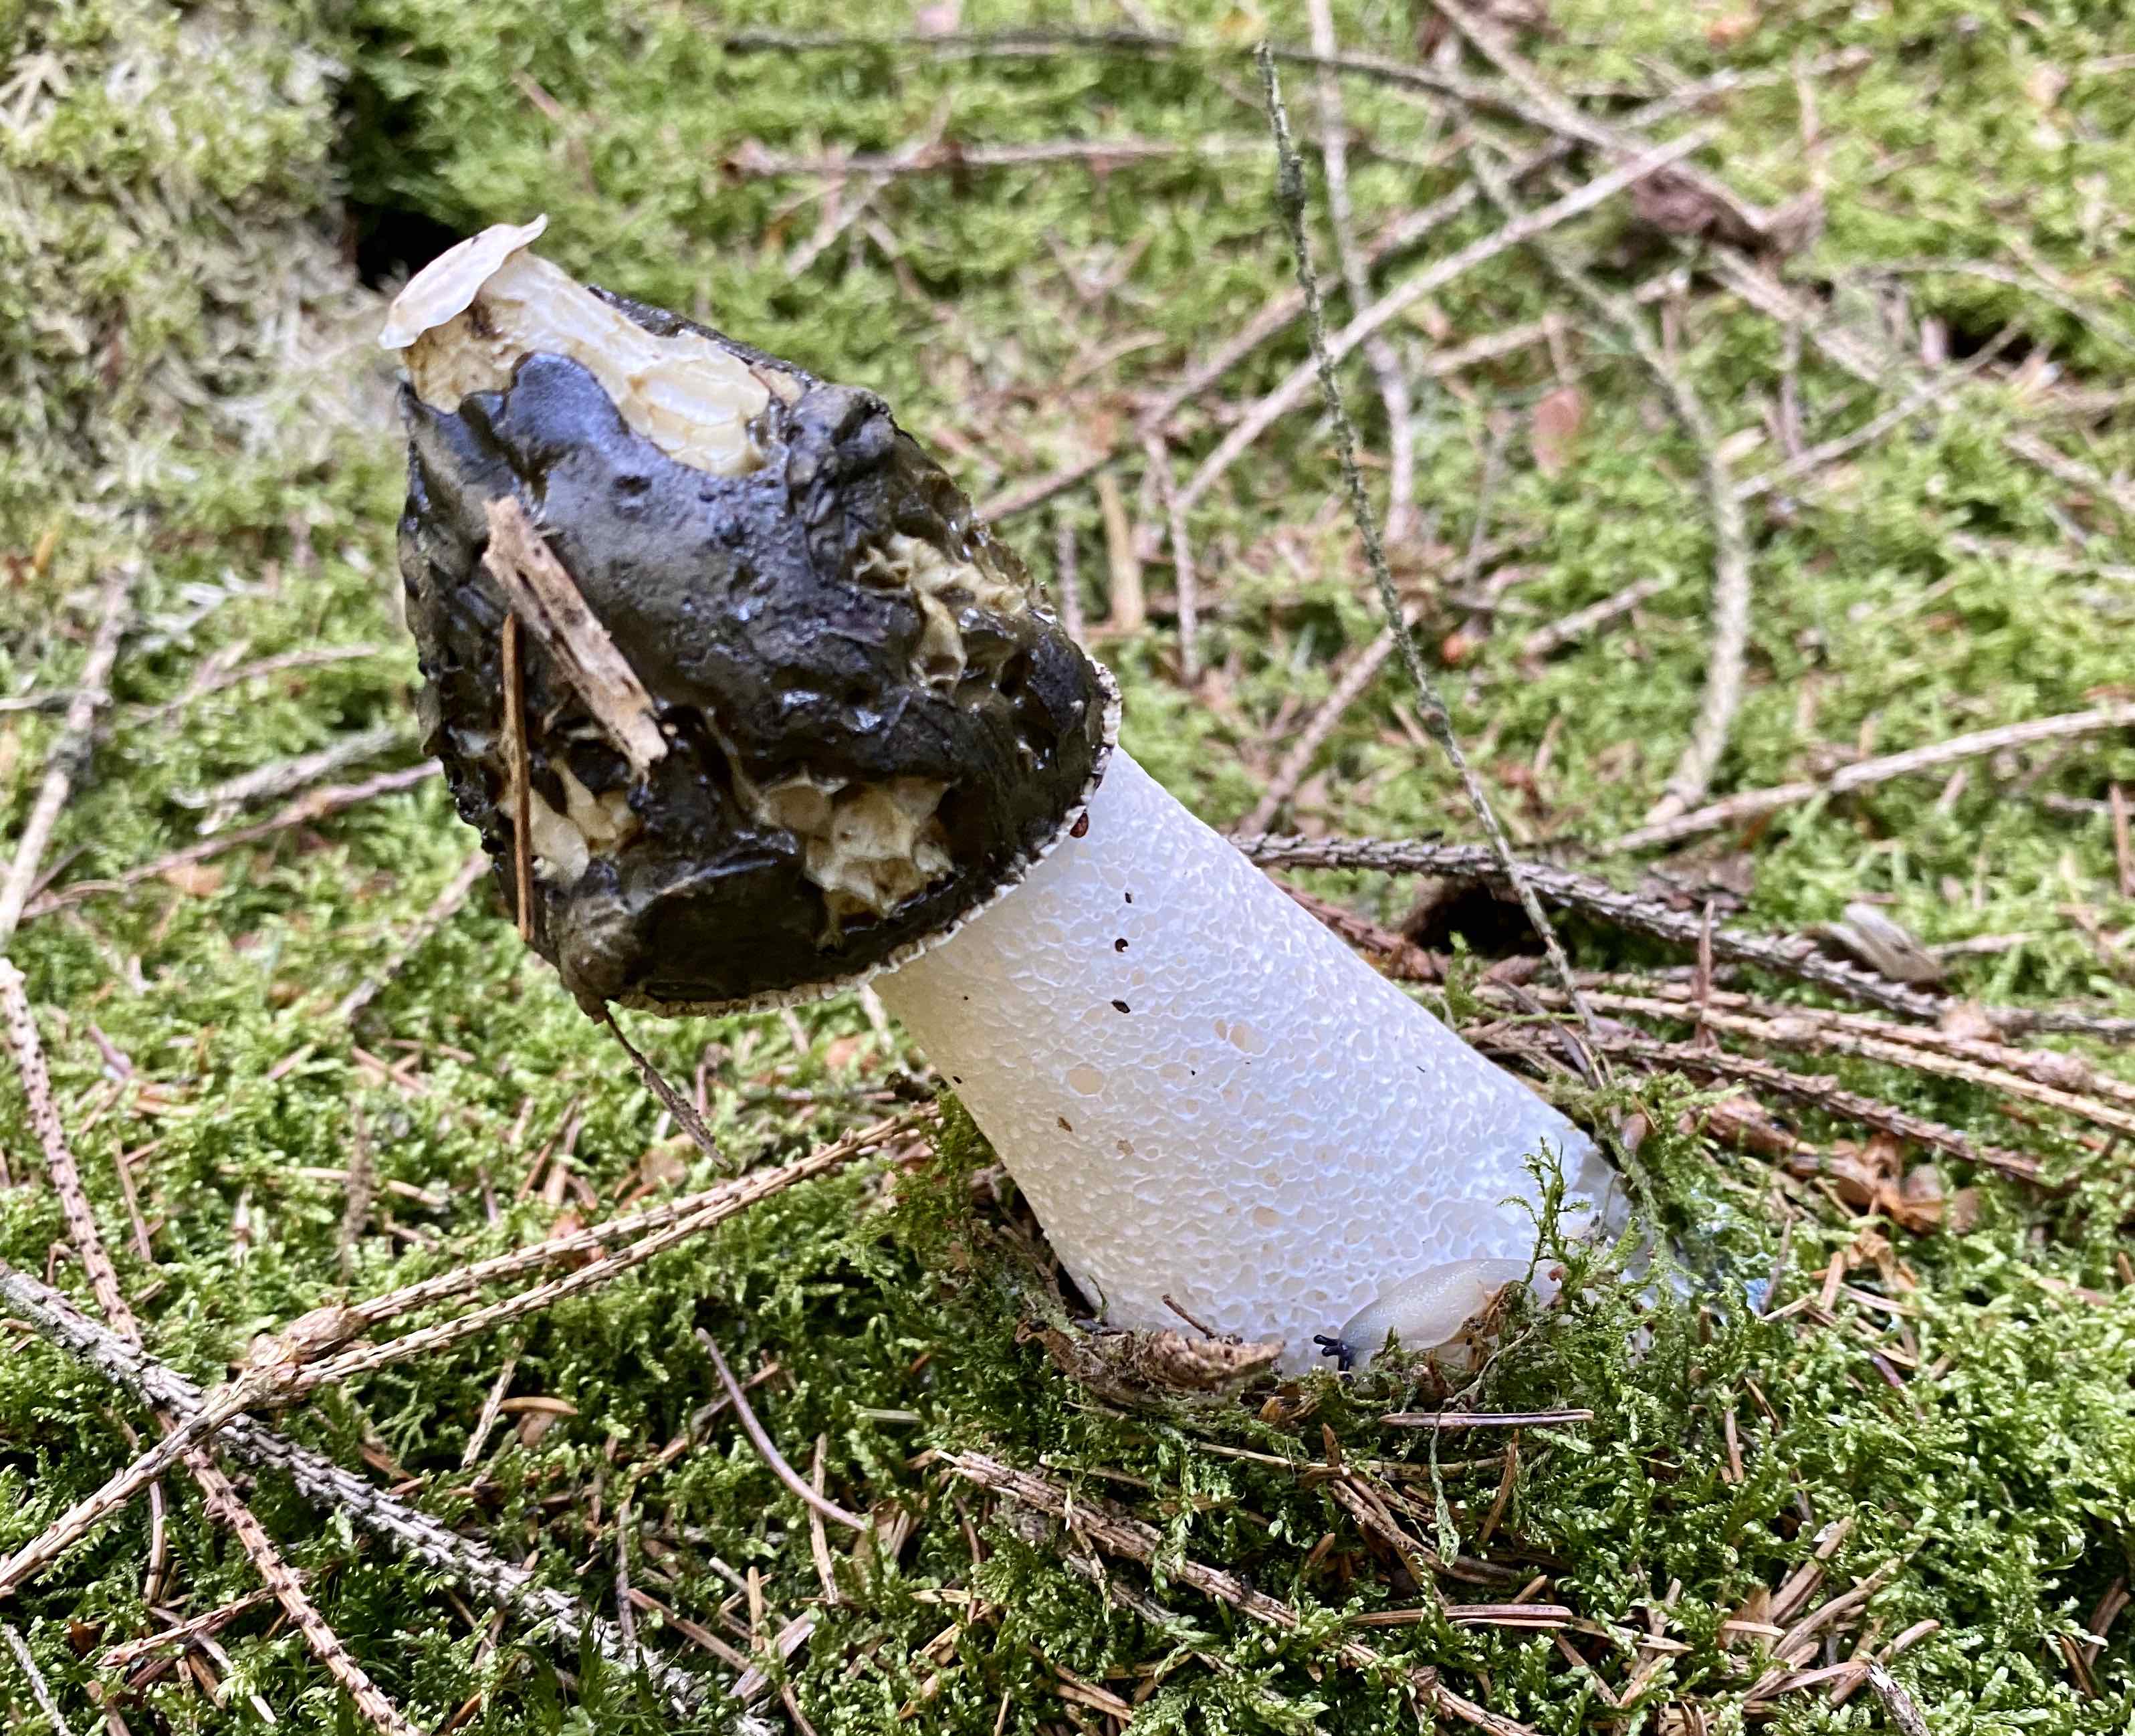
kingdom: Fungi
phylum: Basidiomycota
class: Agaricomycetes
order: Phallales
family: Phallaceae
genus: Phallus
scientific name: Phallus impudicus
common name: almindelig stinksvamp
